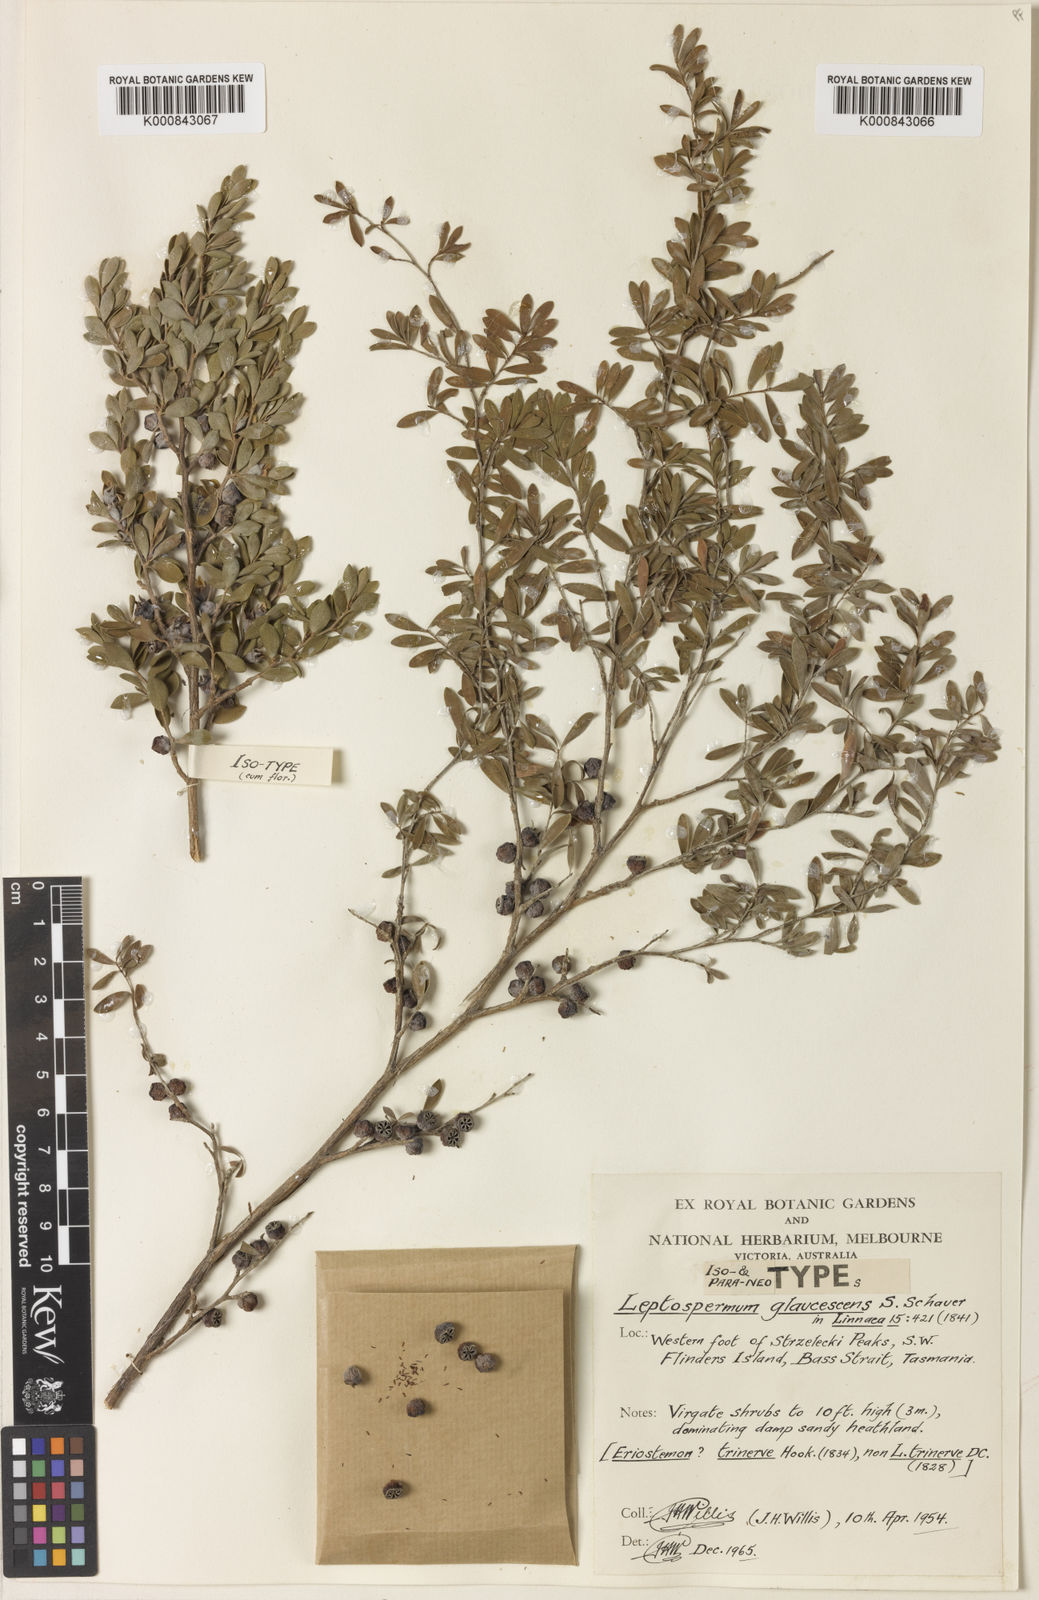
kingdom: Plantae
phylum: Tracheophyta
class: Magnoliopsida
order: Myrtales
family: Myrtaceae
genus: Leptospermum
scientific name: Leptospermum glaucescens
